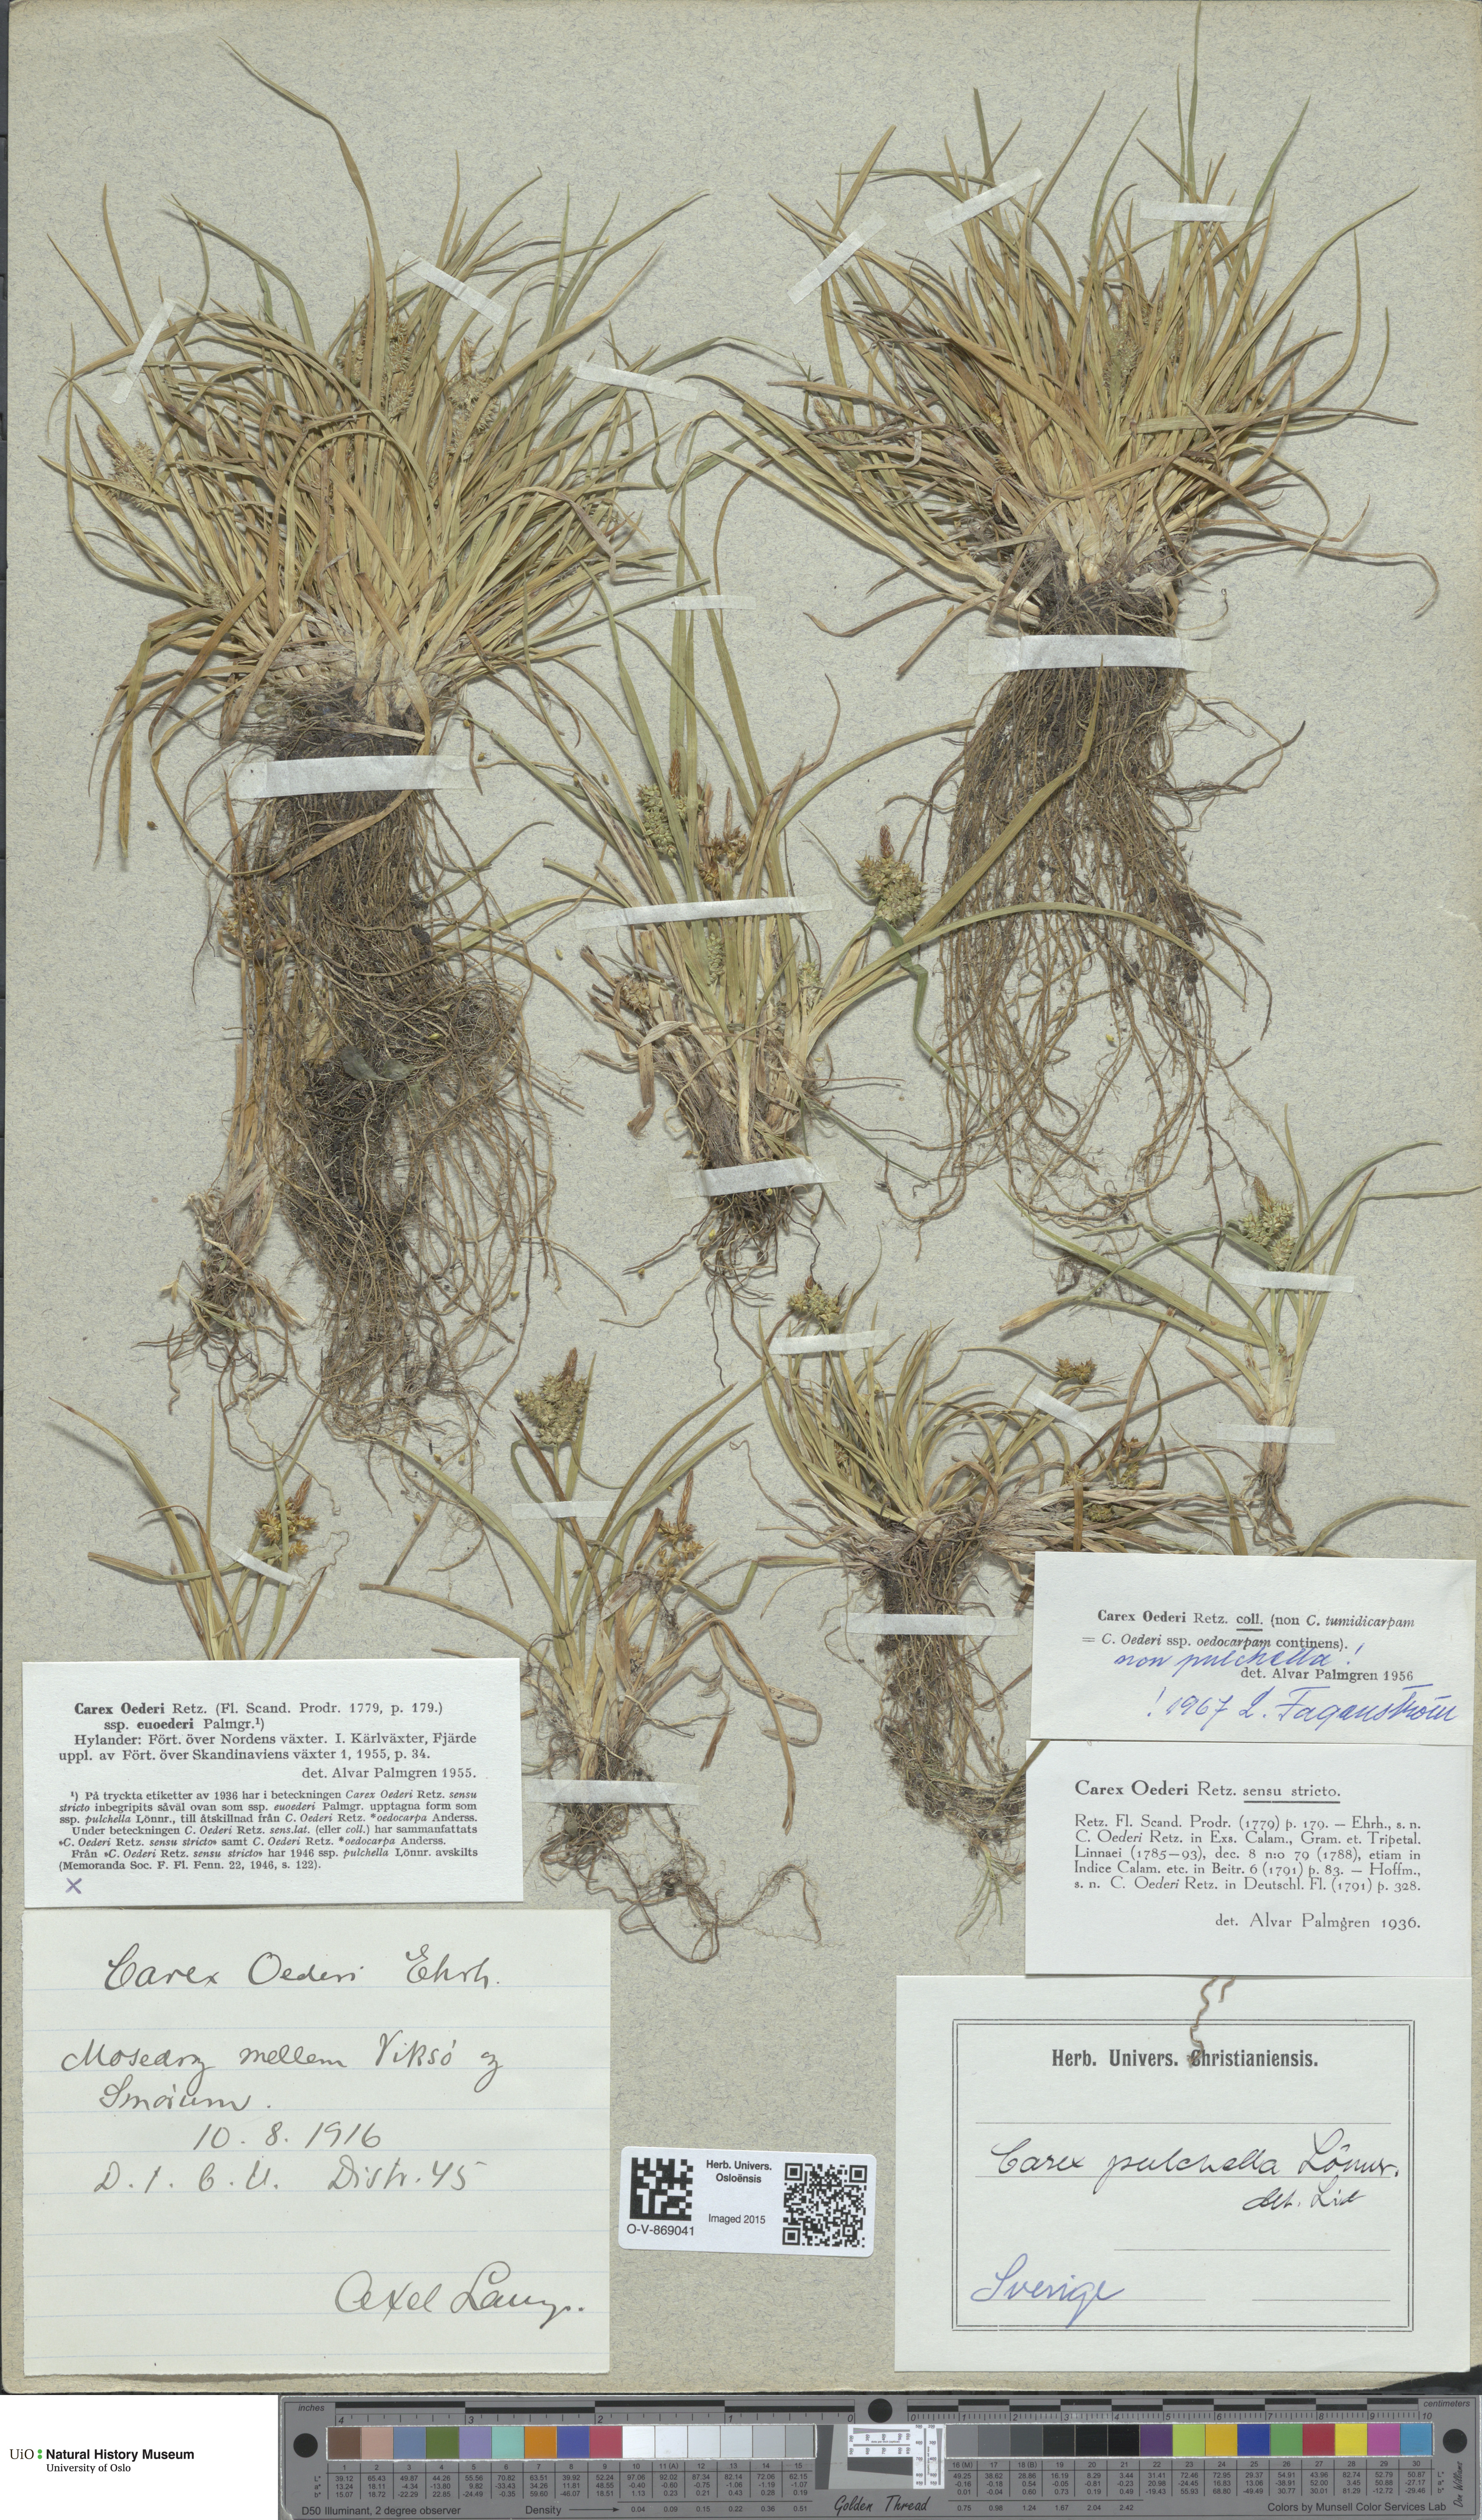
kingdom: Plantae
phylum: Tracheophyta
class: Liliopsida
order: Poales
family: Cyperaceae
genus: Carex
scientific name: Carex oederi
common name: Common & small-fruited yellow-sedge
